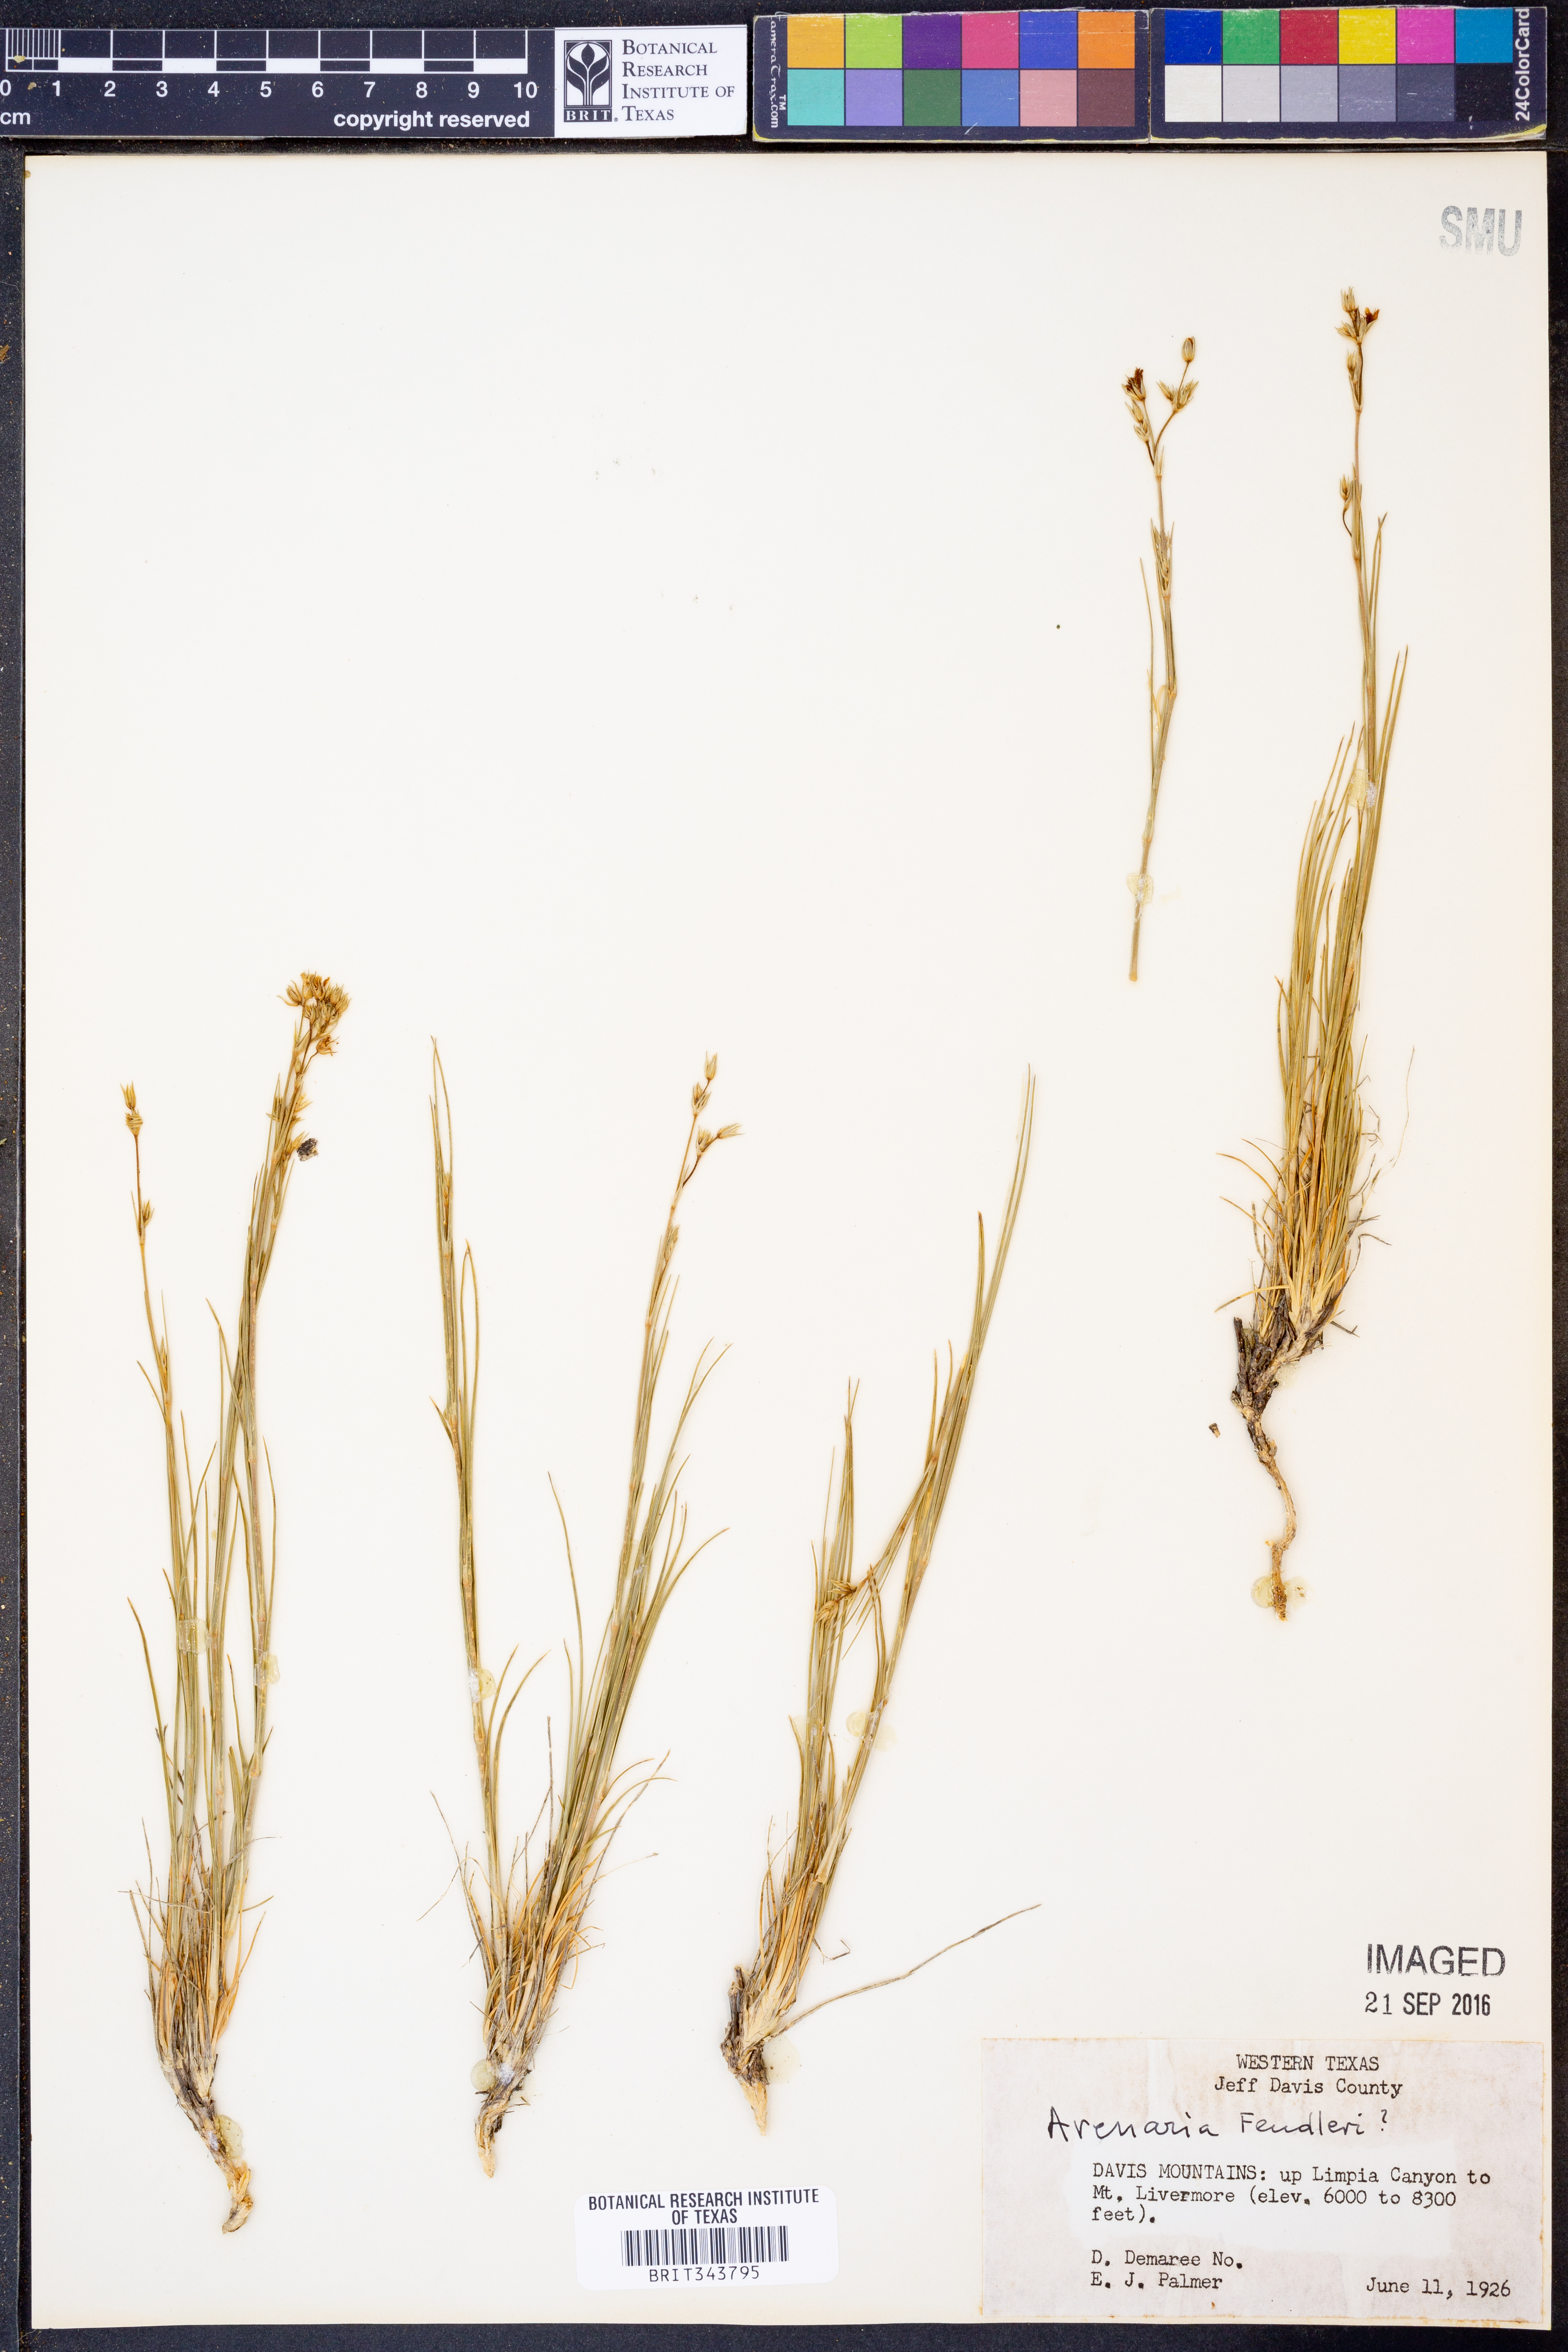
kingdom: Plantae
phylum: Tracheophyta
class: Magnoliopsida
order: Caryophyllales
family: Caryophyllaceae
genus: Eremogone
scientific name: Eremogone fendleri
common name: Fendler's sandwort
